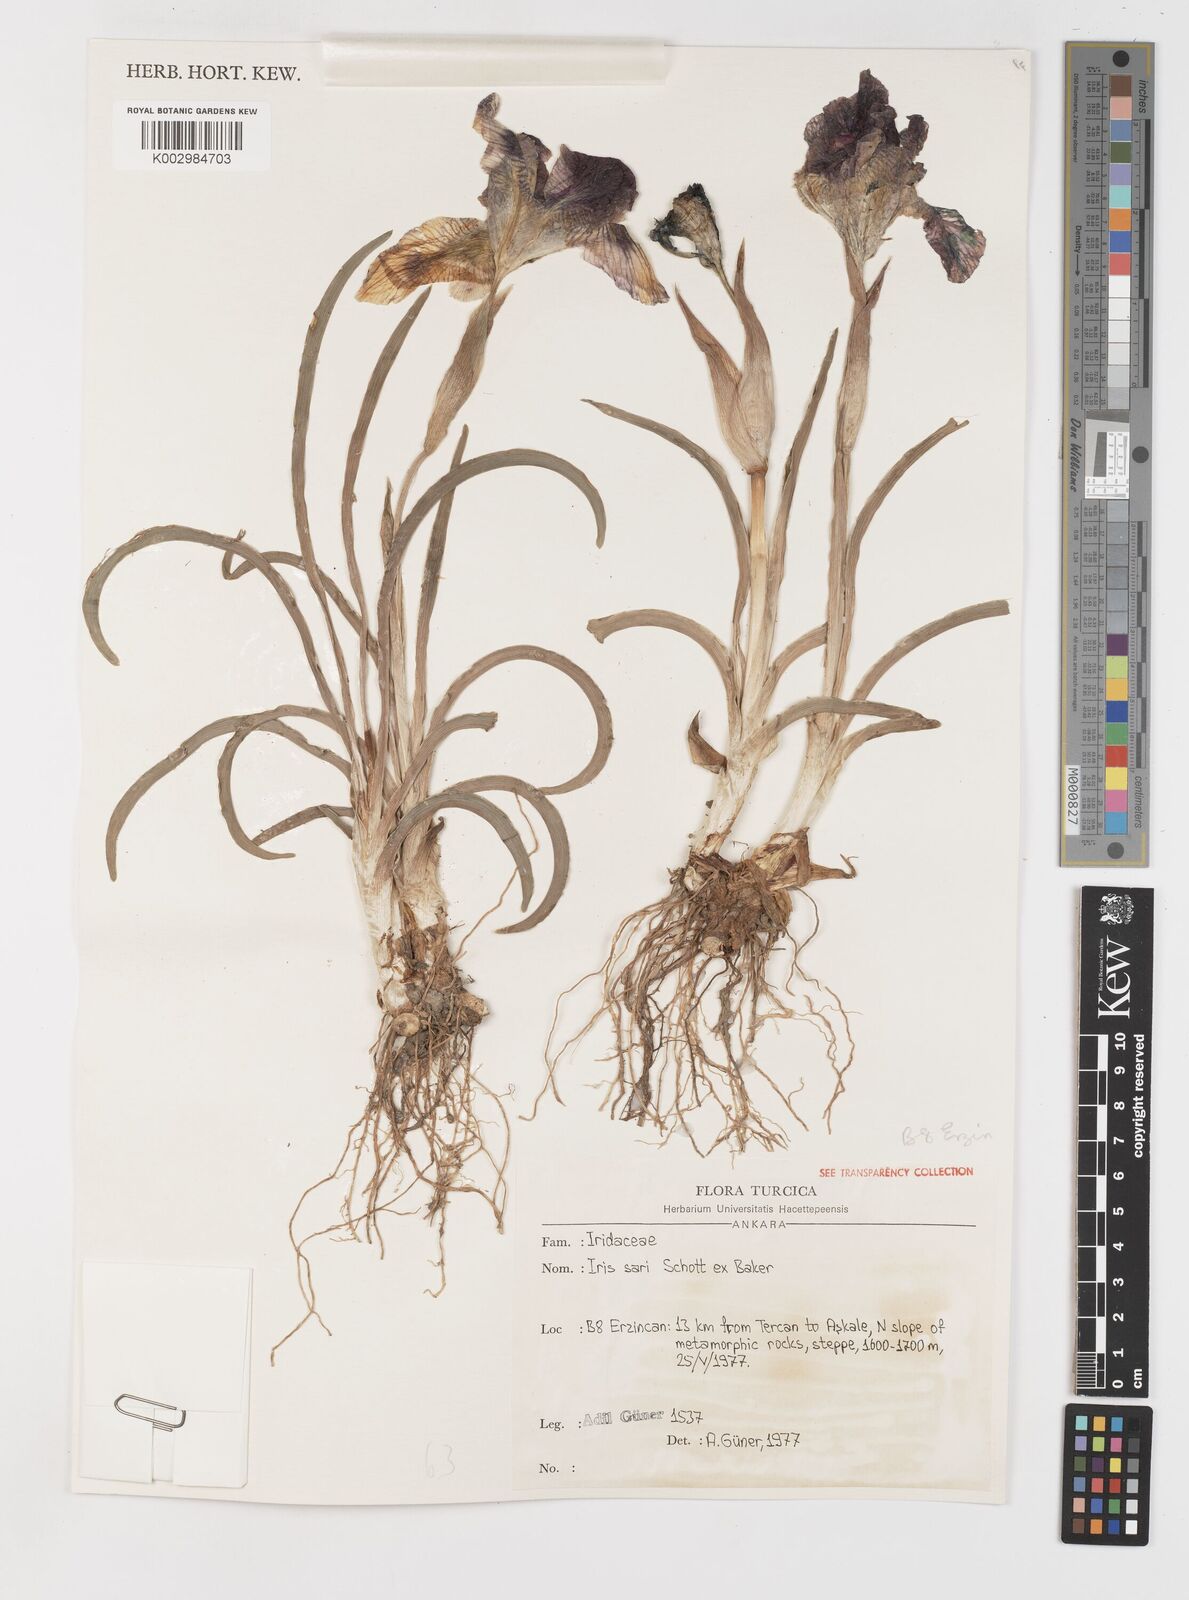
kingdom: Plantae
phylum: Tracheophyta
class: Liliopsida
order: Asparagales
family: Iridaceae
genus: Iris
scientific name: Iris sari
